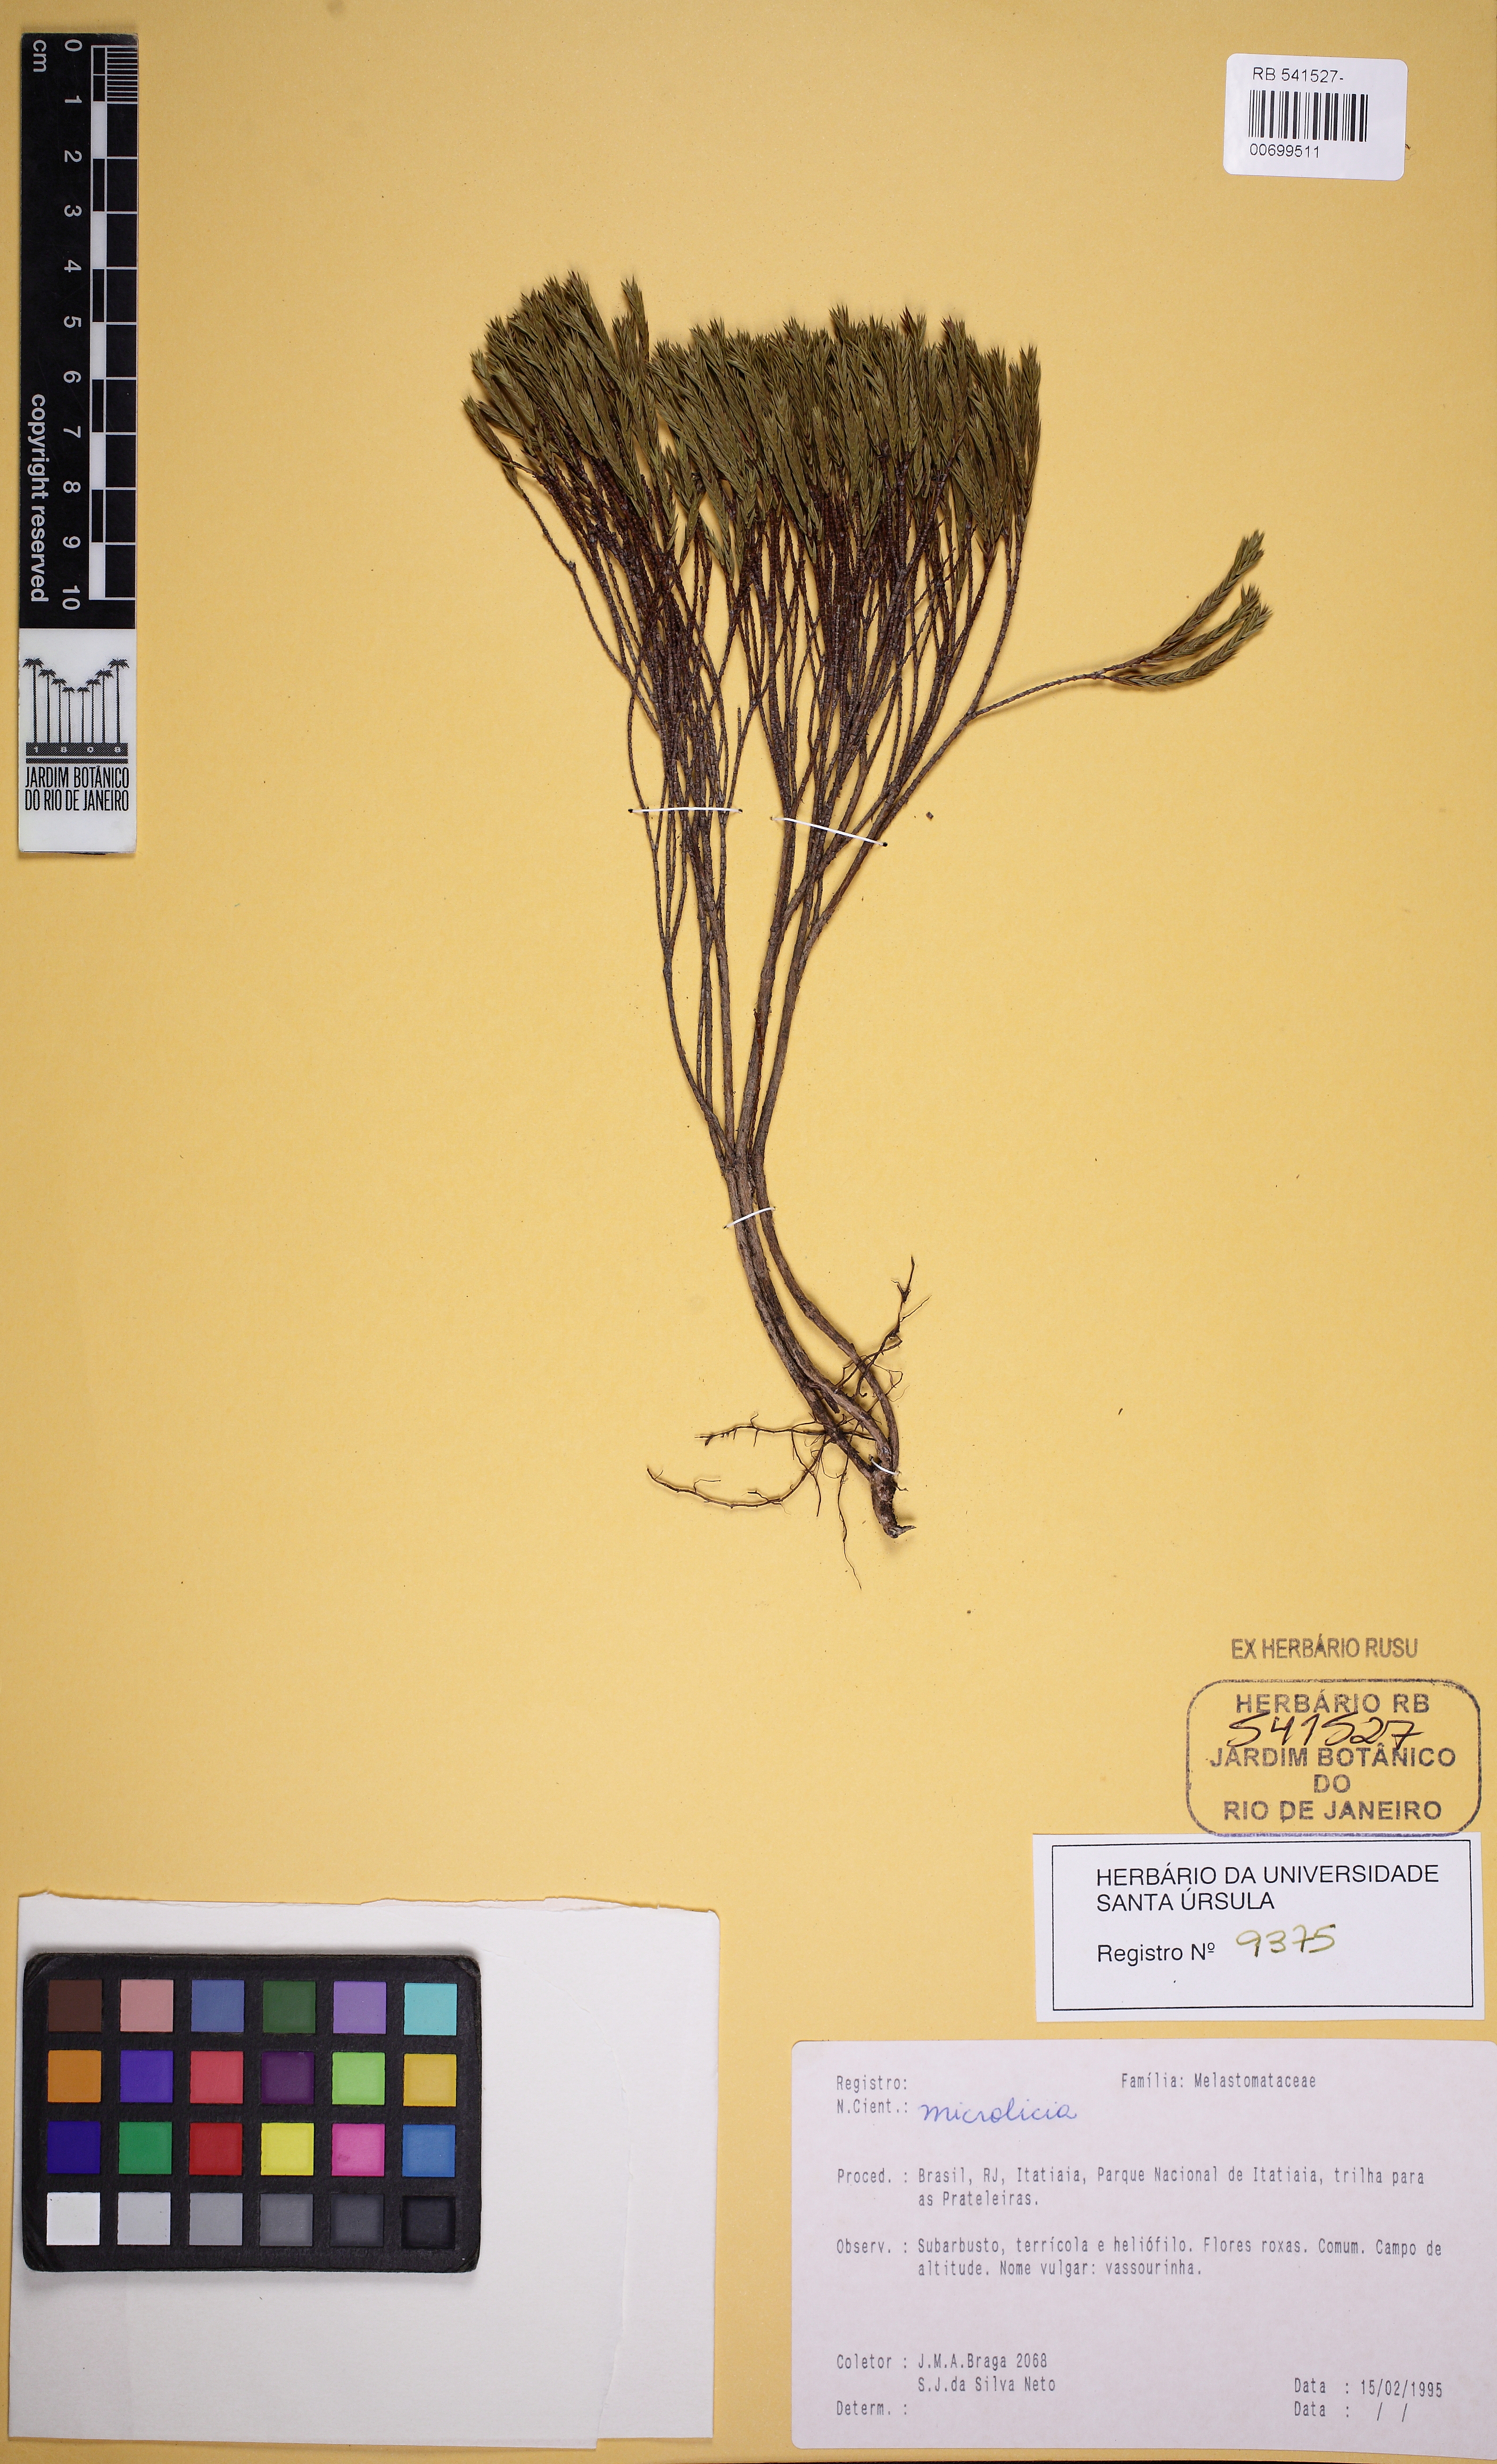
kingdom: Plantae
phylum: Tracheophyta
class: Magnoliopsida
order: Myrtales
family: Melastomataceae
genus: Microlicia
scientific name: Microlicia glaziovii
